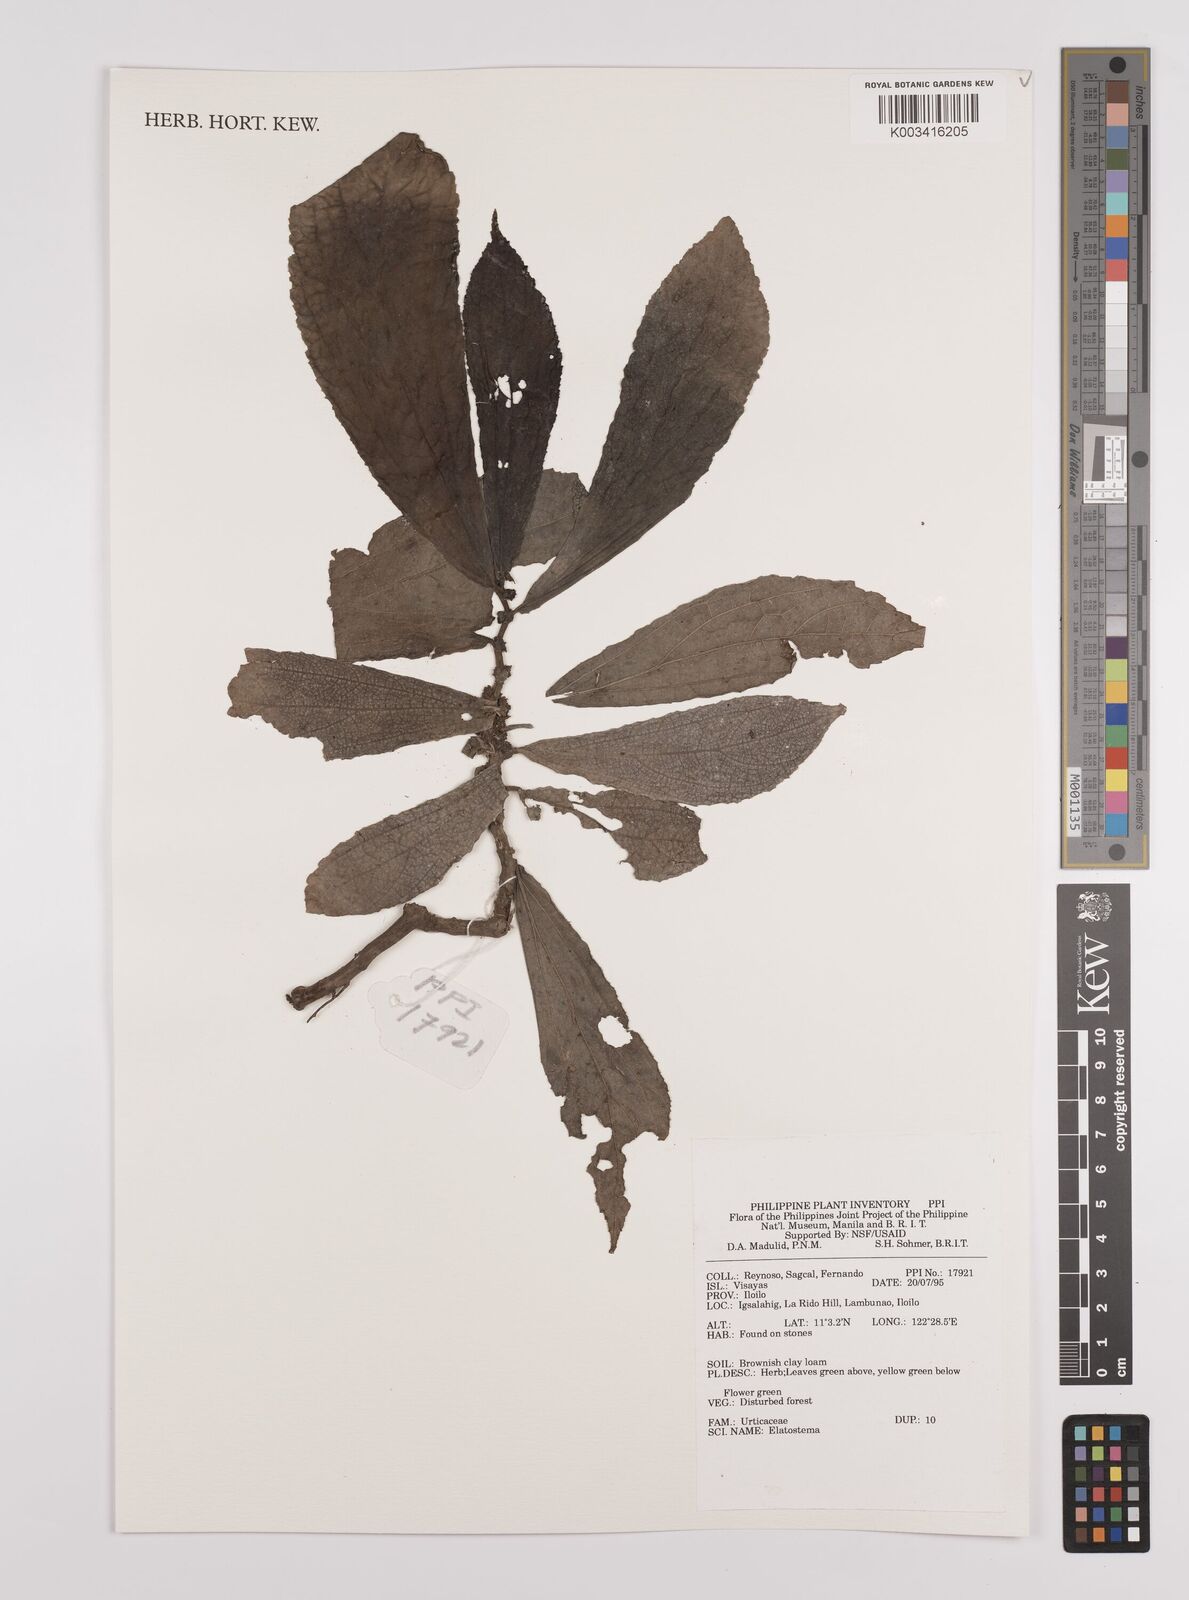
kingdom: Plantae
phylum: Tracheophyta
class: Magnoliopsida
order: Rosales
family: Urticaceae
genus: Elatostema
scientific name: Elatostema
